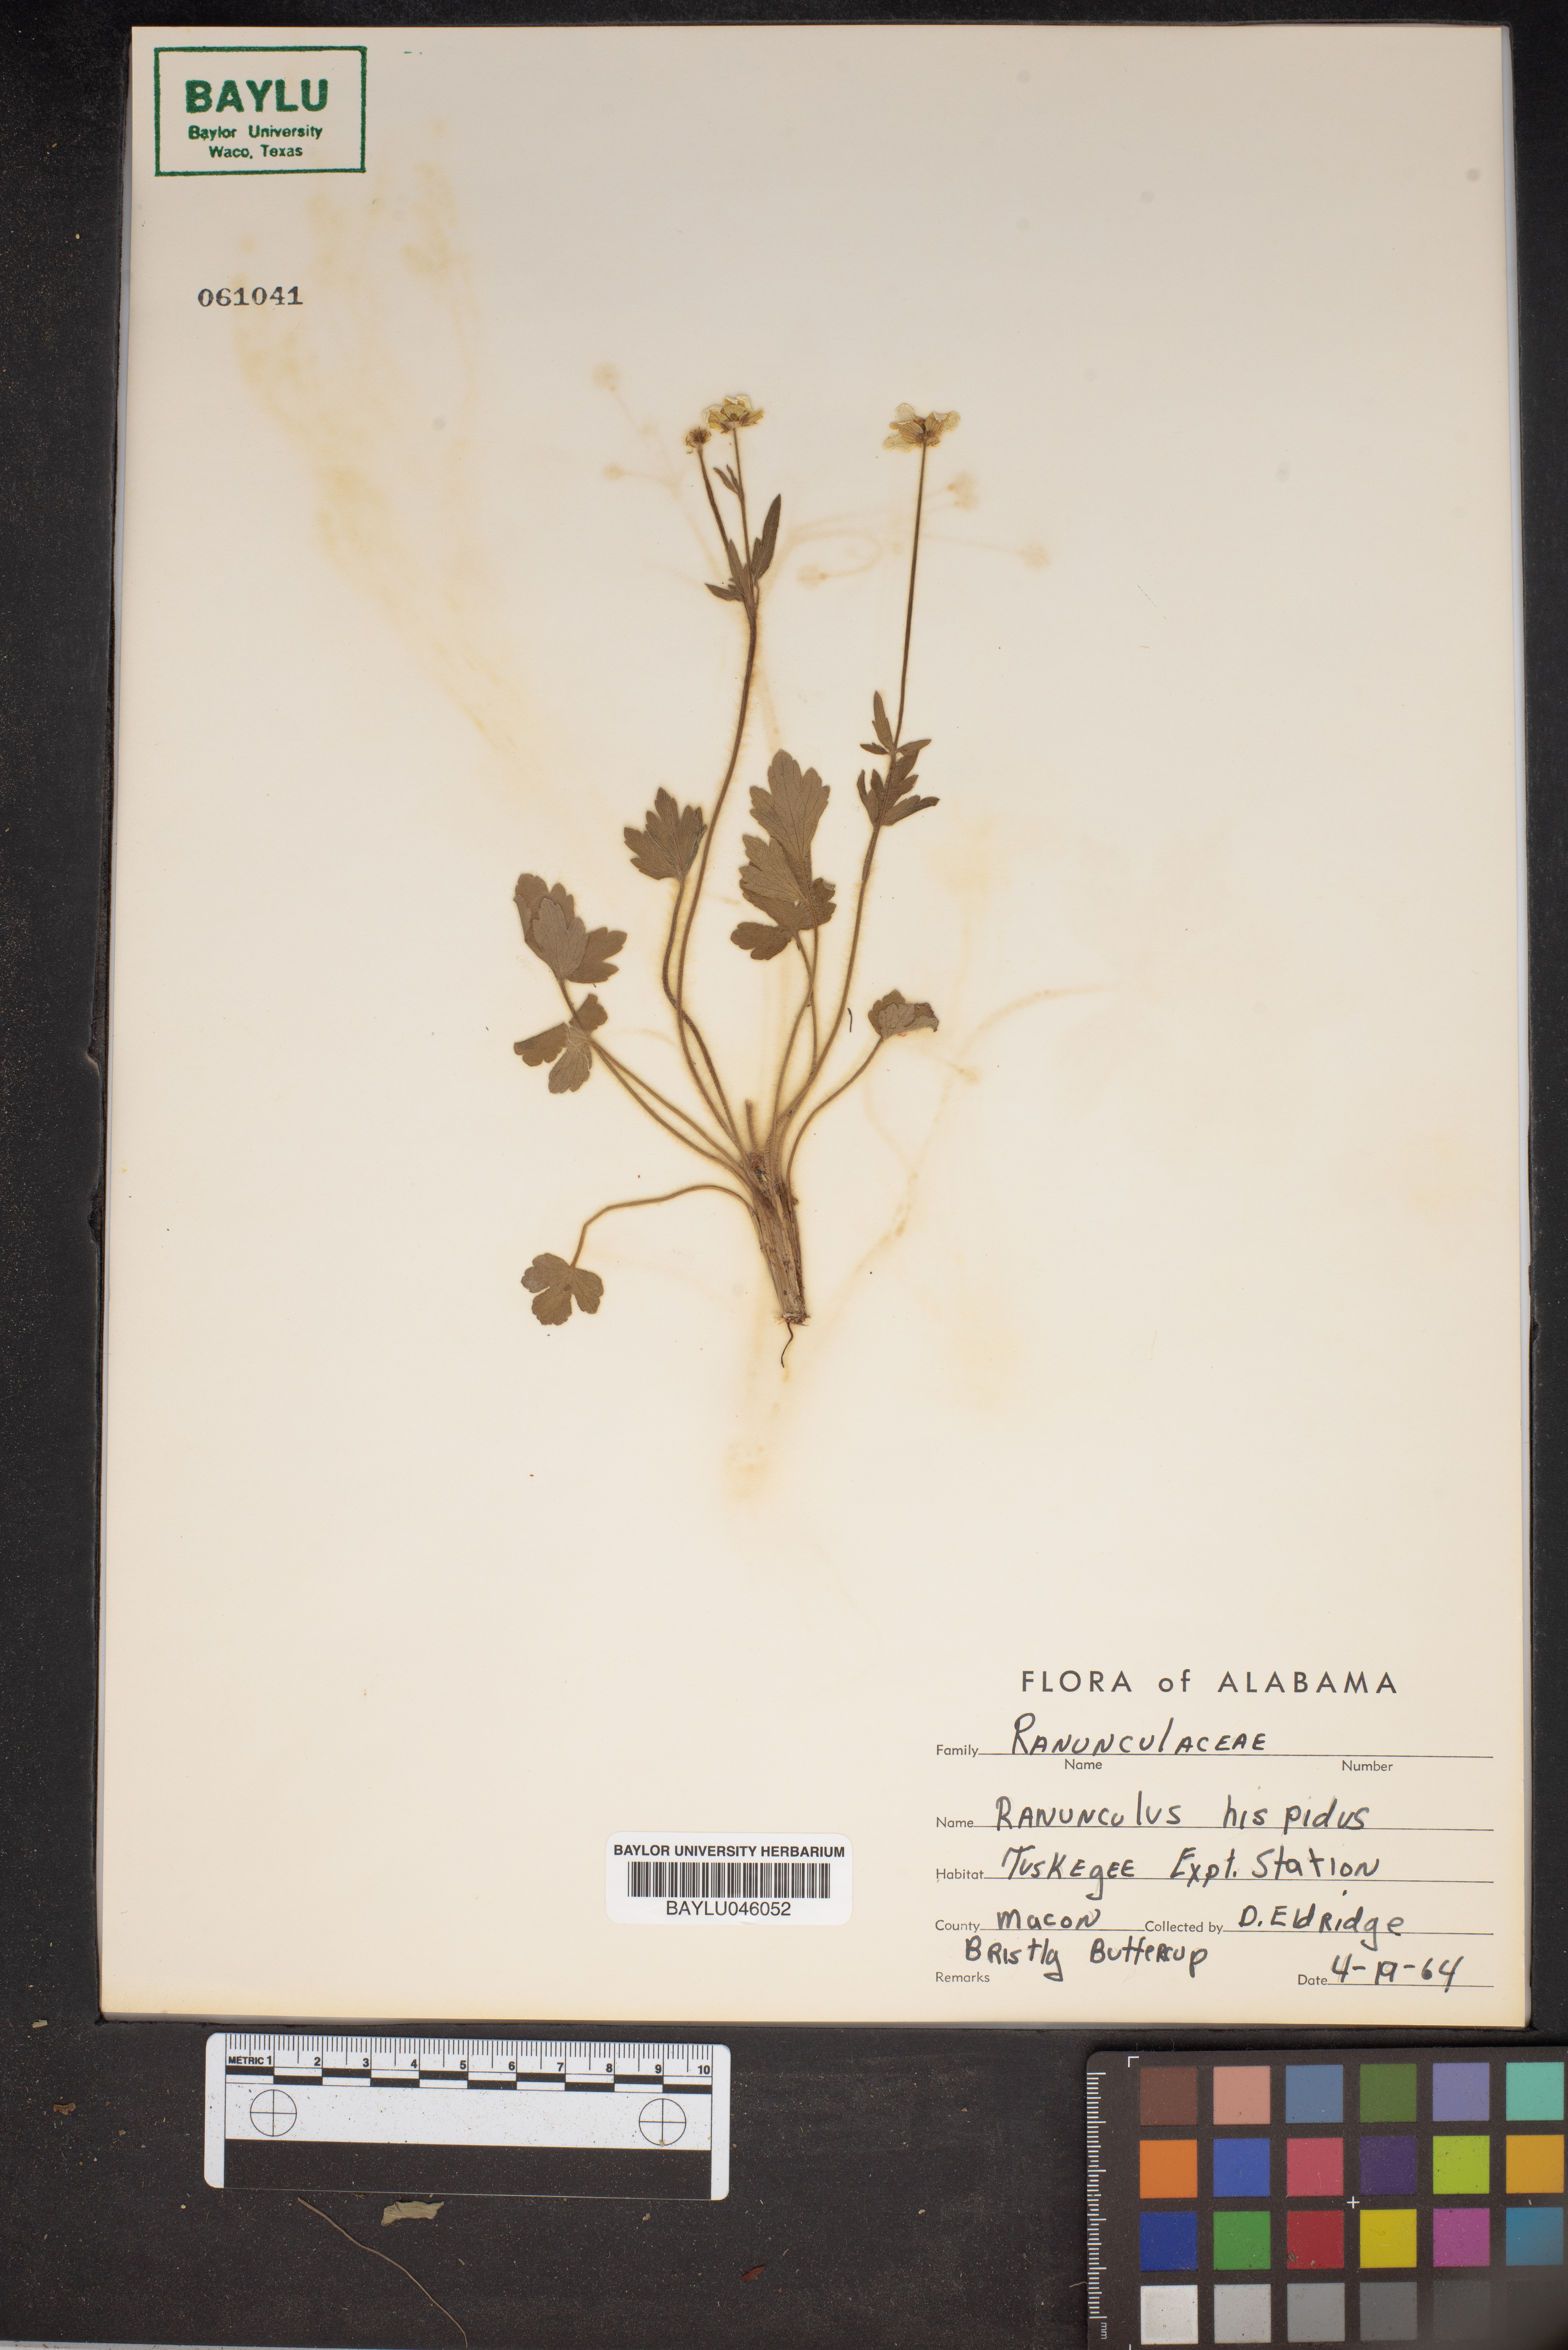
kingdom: Plantae
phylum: Tracheophyta
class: Magnoliopsida
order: Ranunculales
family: Ranunculaceae
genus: Ranunculus
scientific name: Ranunculus hispidus
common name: Bristly buttercup
